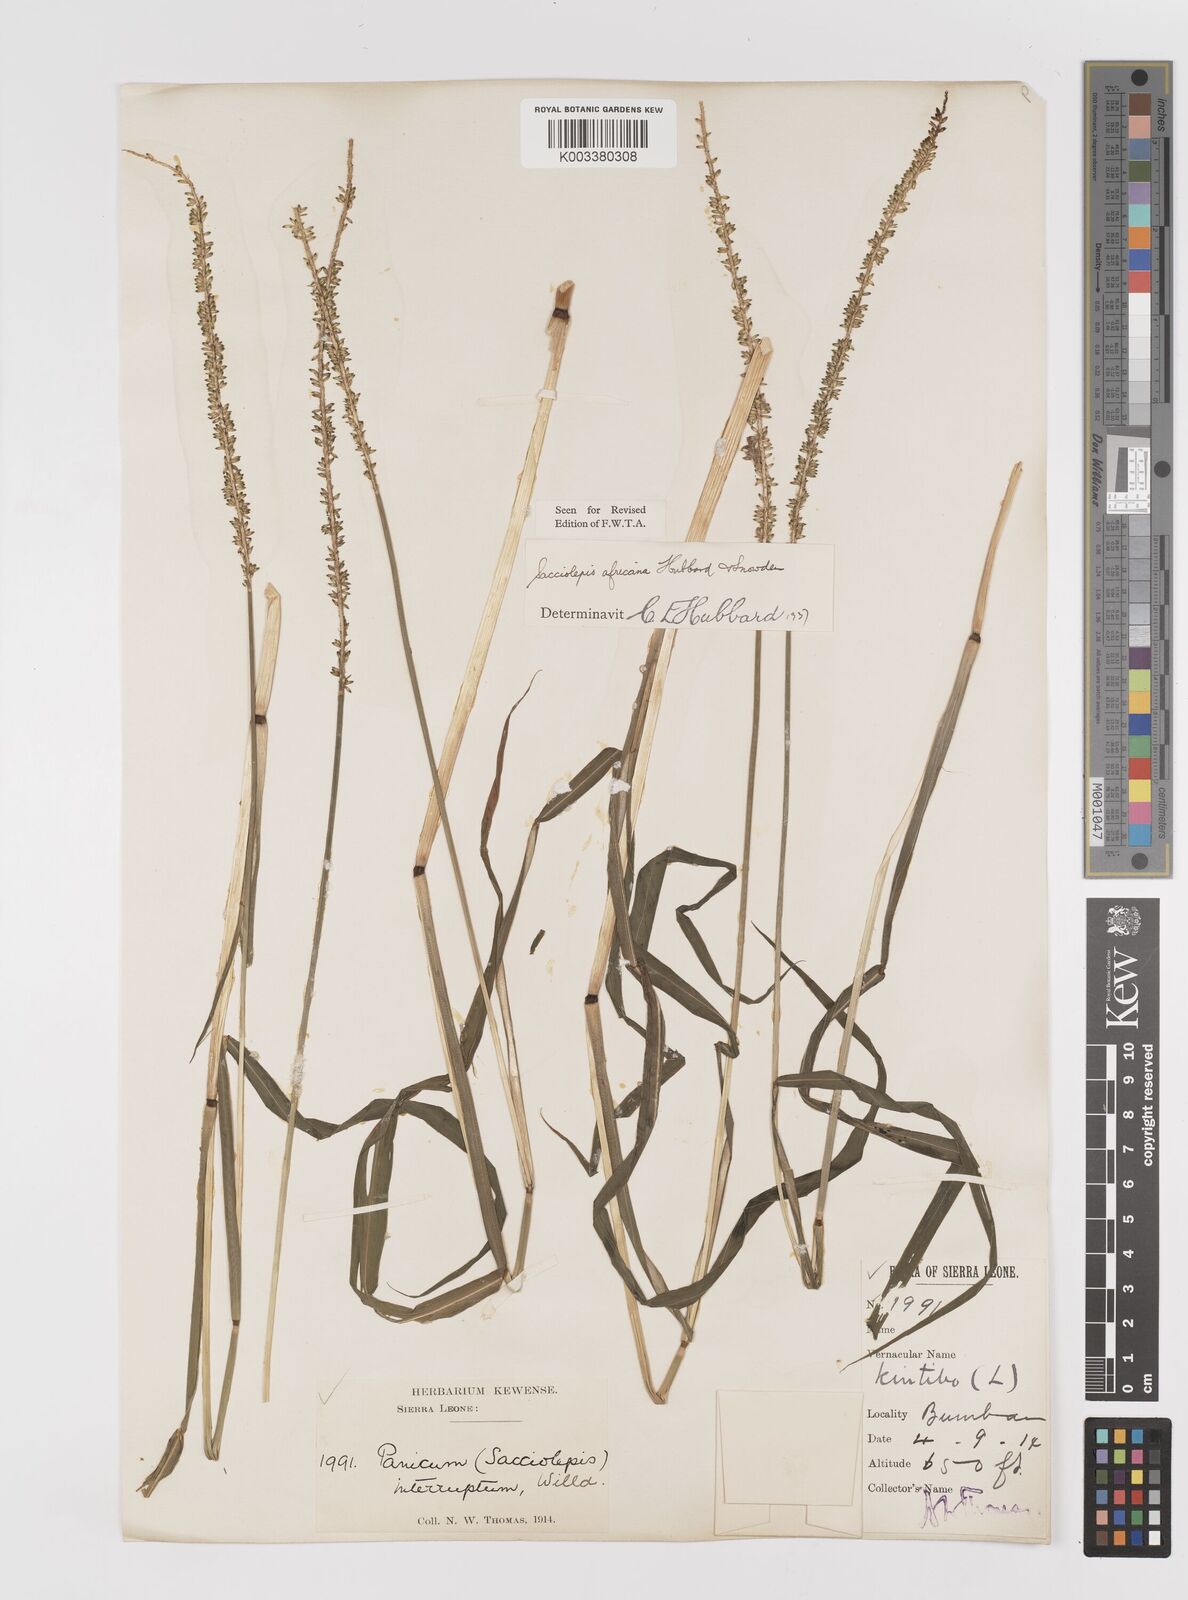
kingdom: Plantae
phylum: Tracheophyta
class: Liliopsida
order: Poales
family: Poaceae
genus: Sacciolepis
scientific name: Sacciolepis africana
